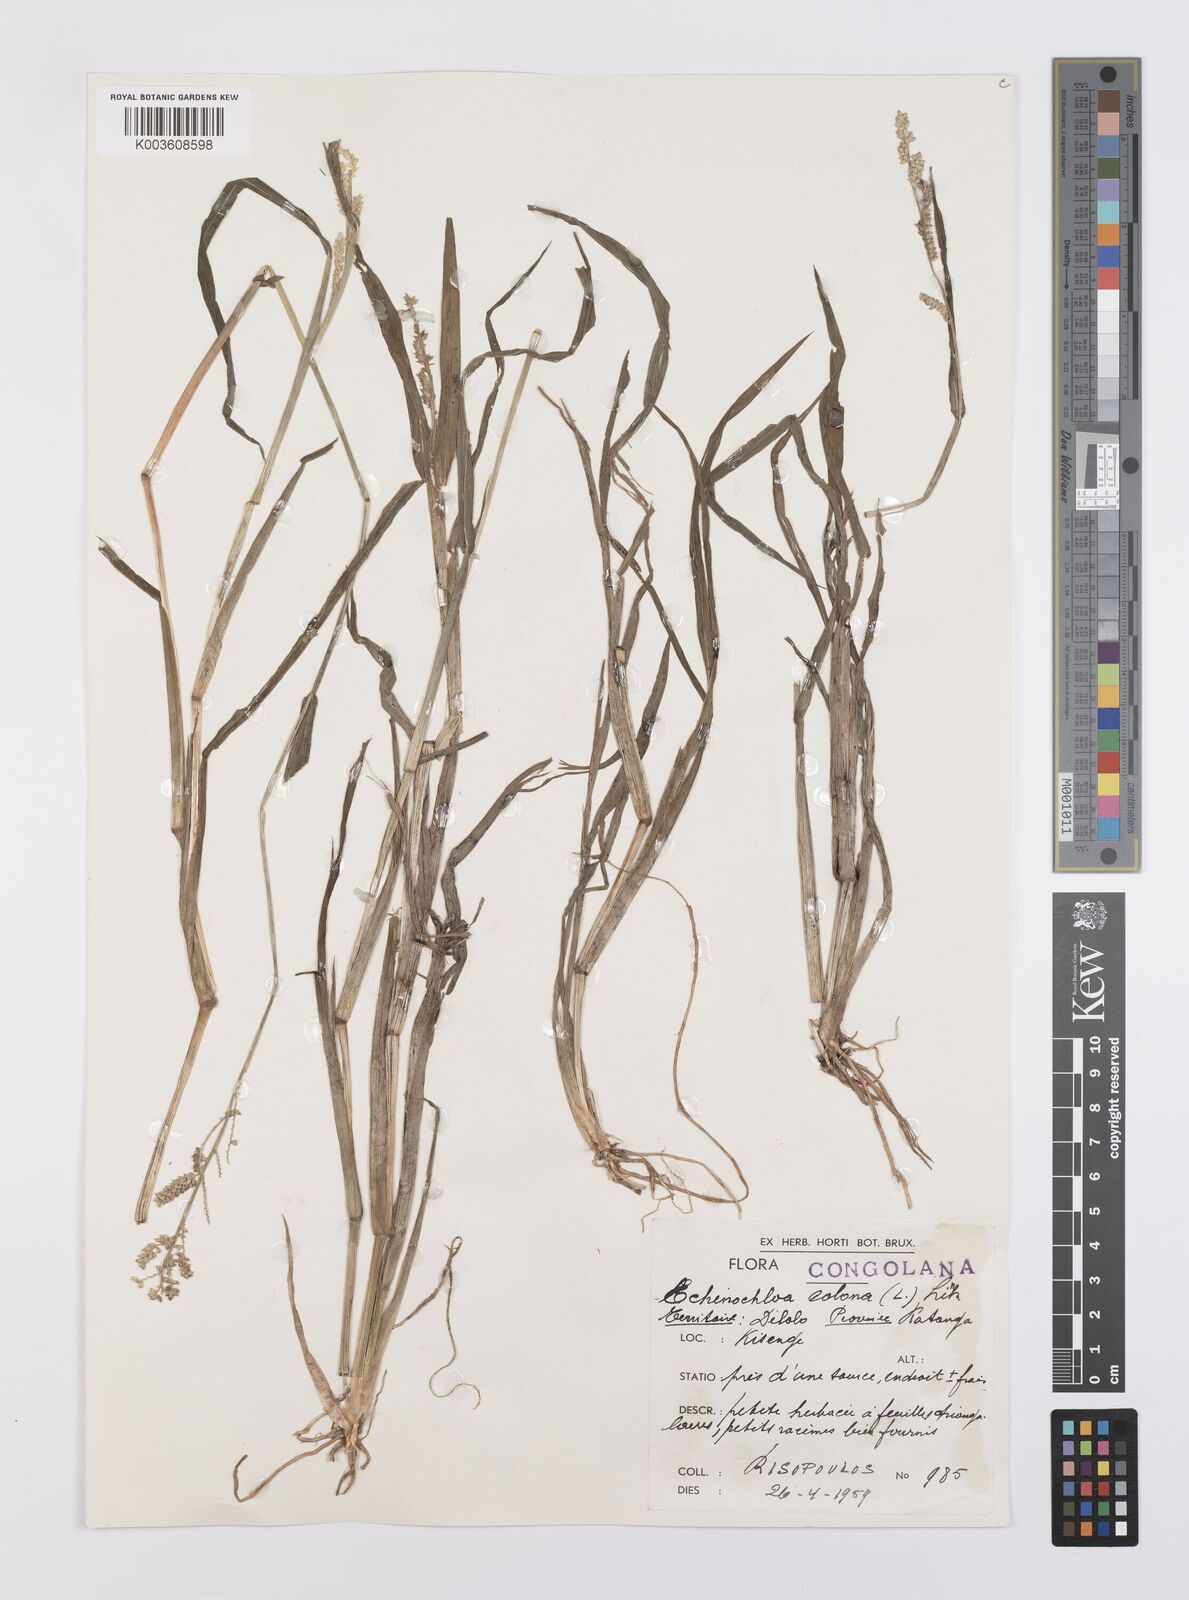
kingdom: Plantae
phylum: Tracheophyta
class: Liliopsida
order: Poales
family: Poaceae
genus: Echinochloa
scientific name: Echinochloa colonum
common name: Jungle rice
